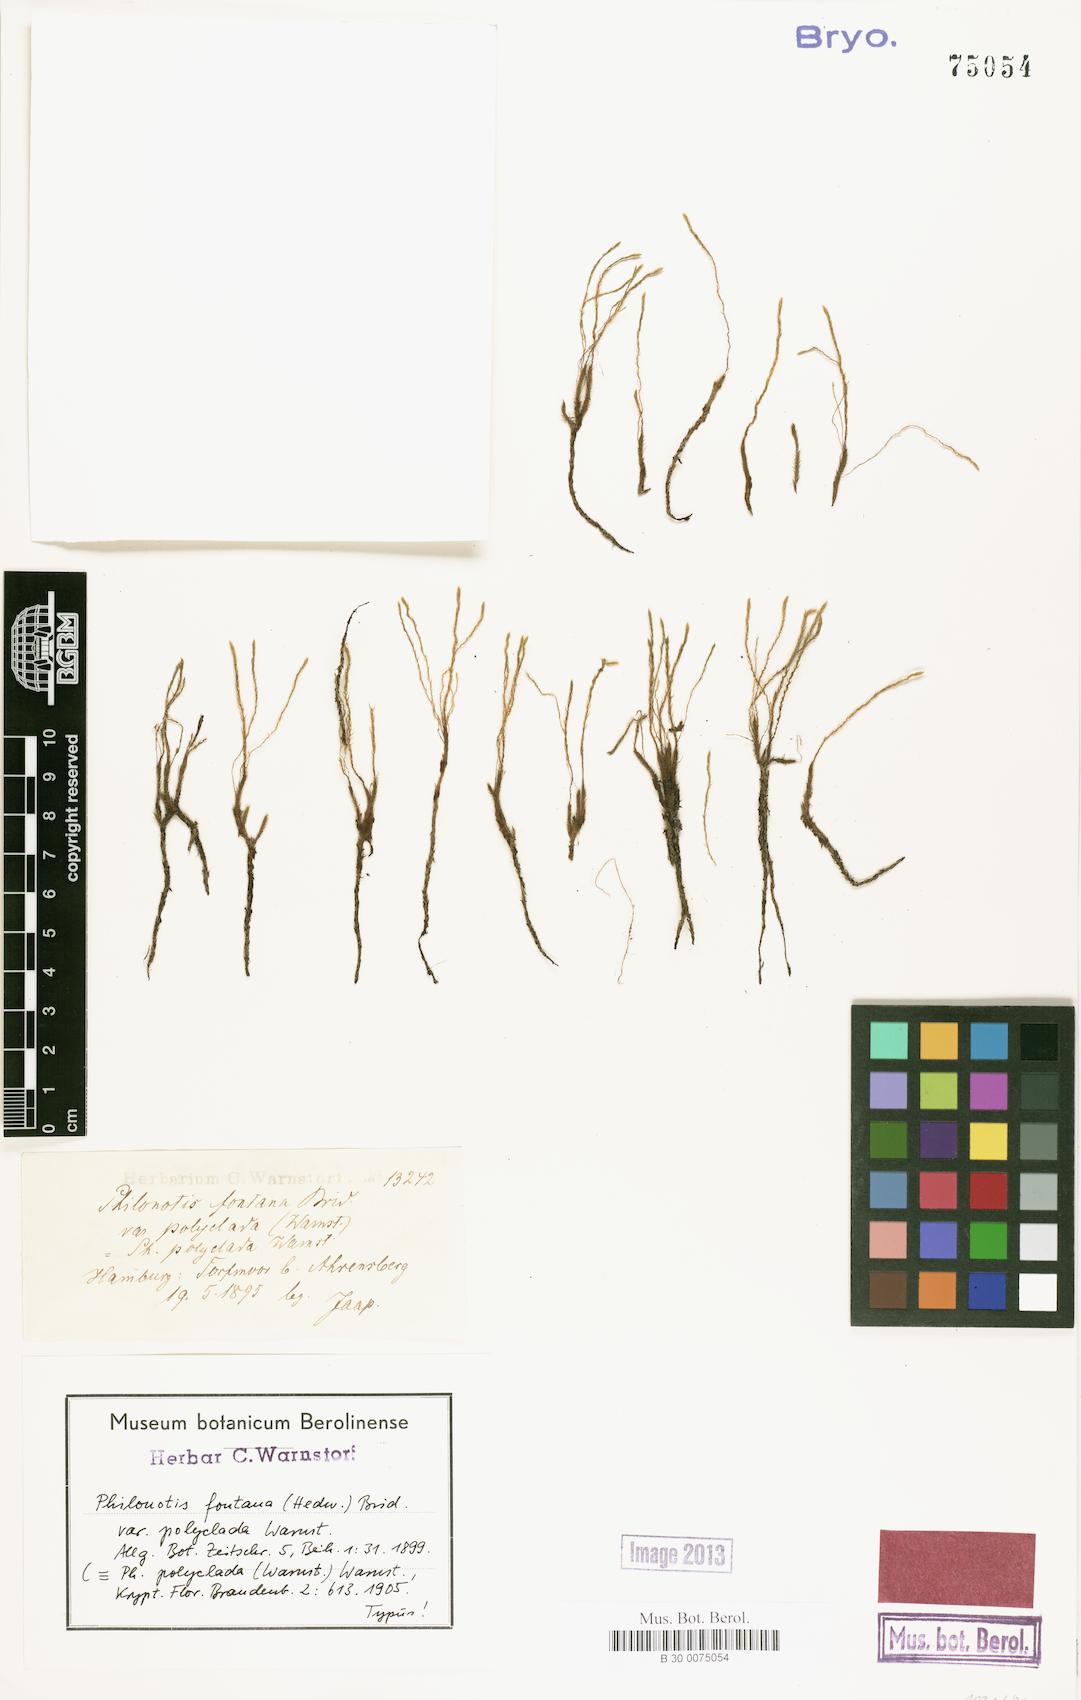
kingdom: Plantae
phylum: Bryophyta
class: Bryopsida
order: Bartramiales
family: Bartramiaceae
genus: Philonotis
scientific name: Philonotis calcarea
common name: Thick-nerved apple-moss
